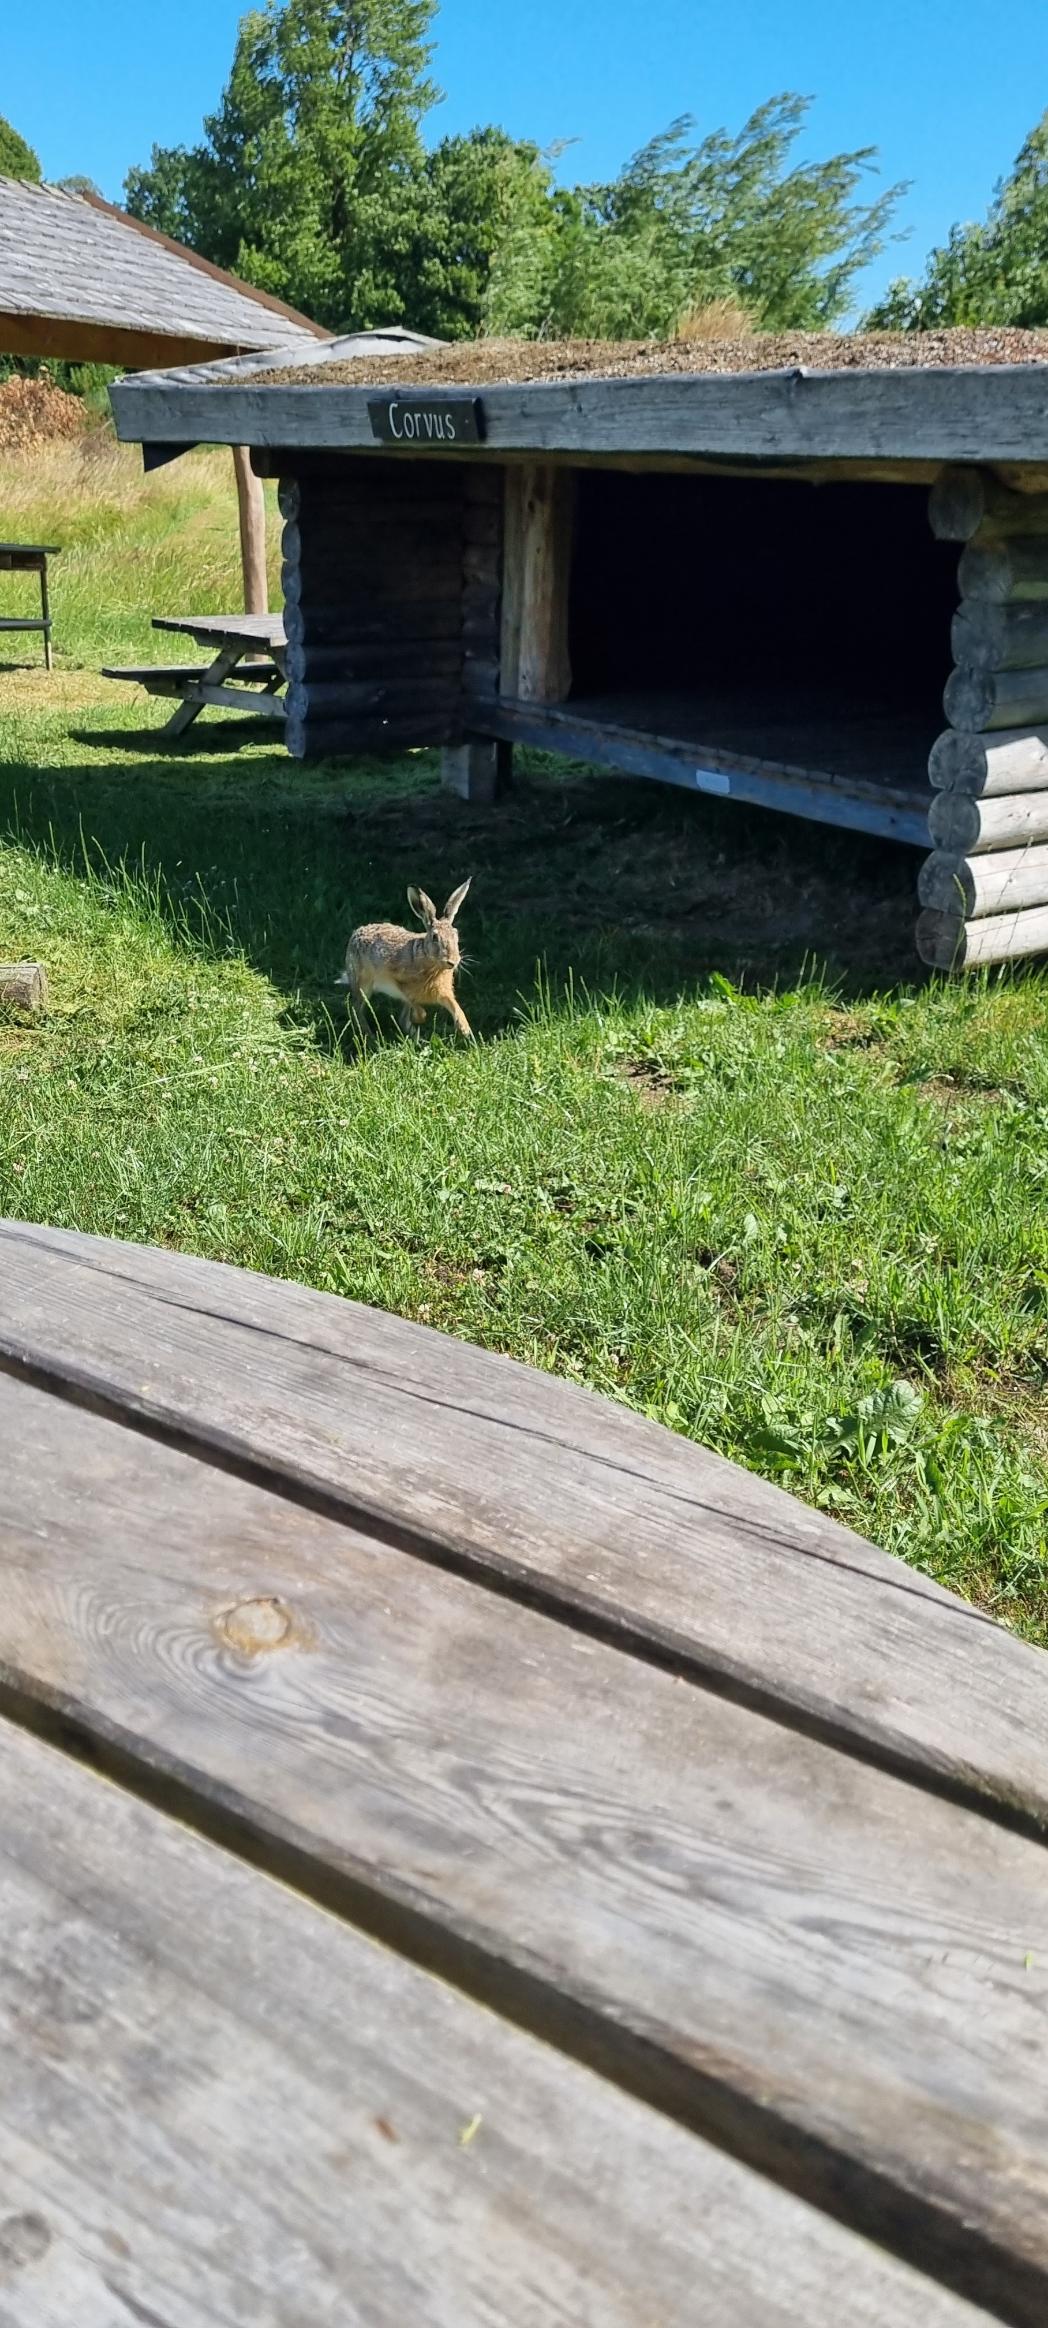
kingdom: Animalia
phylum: Chordata
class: Mammalia
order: Lagomorpha
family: Leporidae
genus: Lepus
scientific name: Lepus europaeus
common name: Hare
